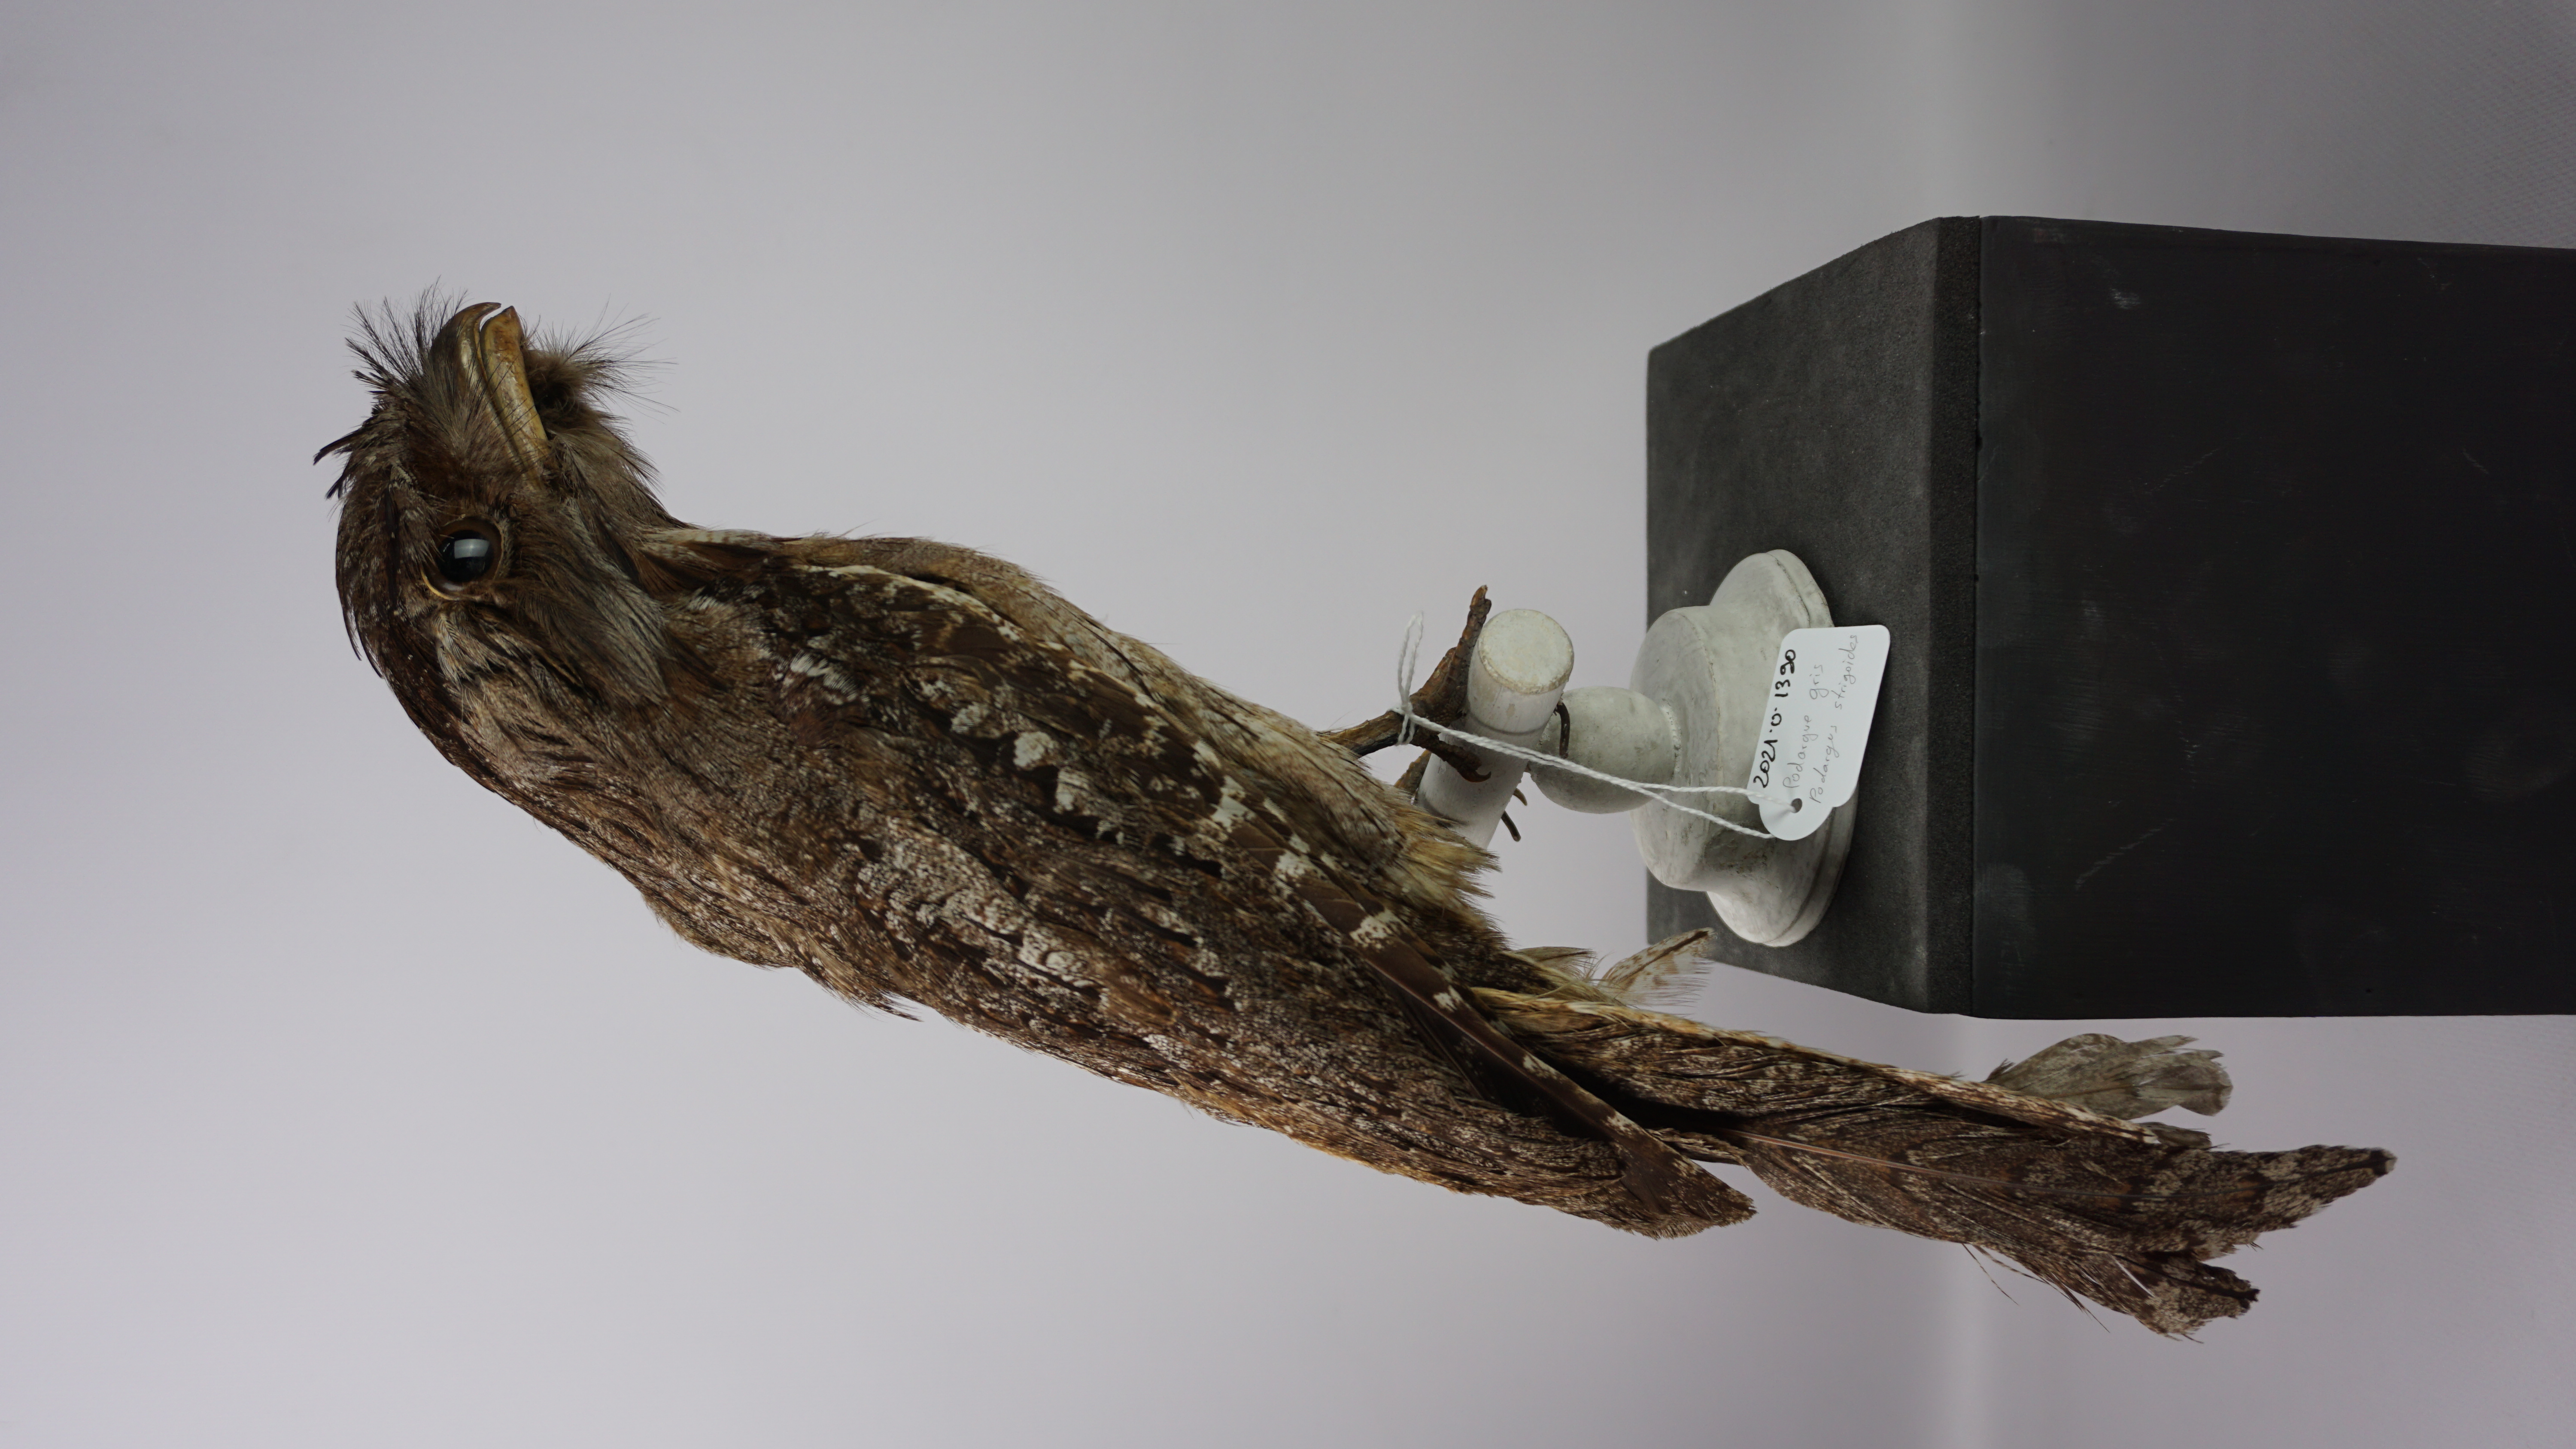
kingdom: Animalia
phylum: Chordata
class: Aves
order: Caprimulgiformes
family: Podargidae
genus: Podargus
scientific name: Podargus strigoides
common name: Tawny frogmouth
